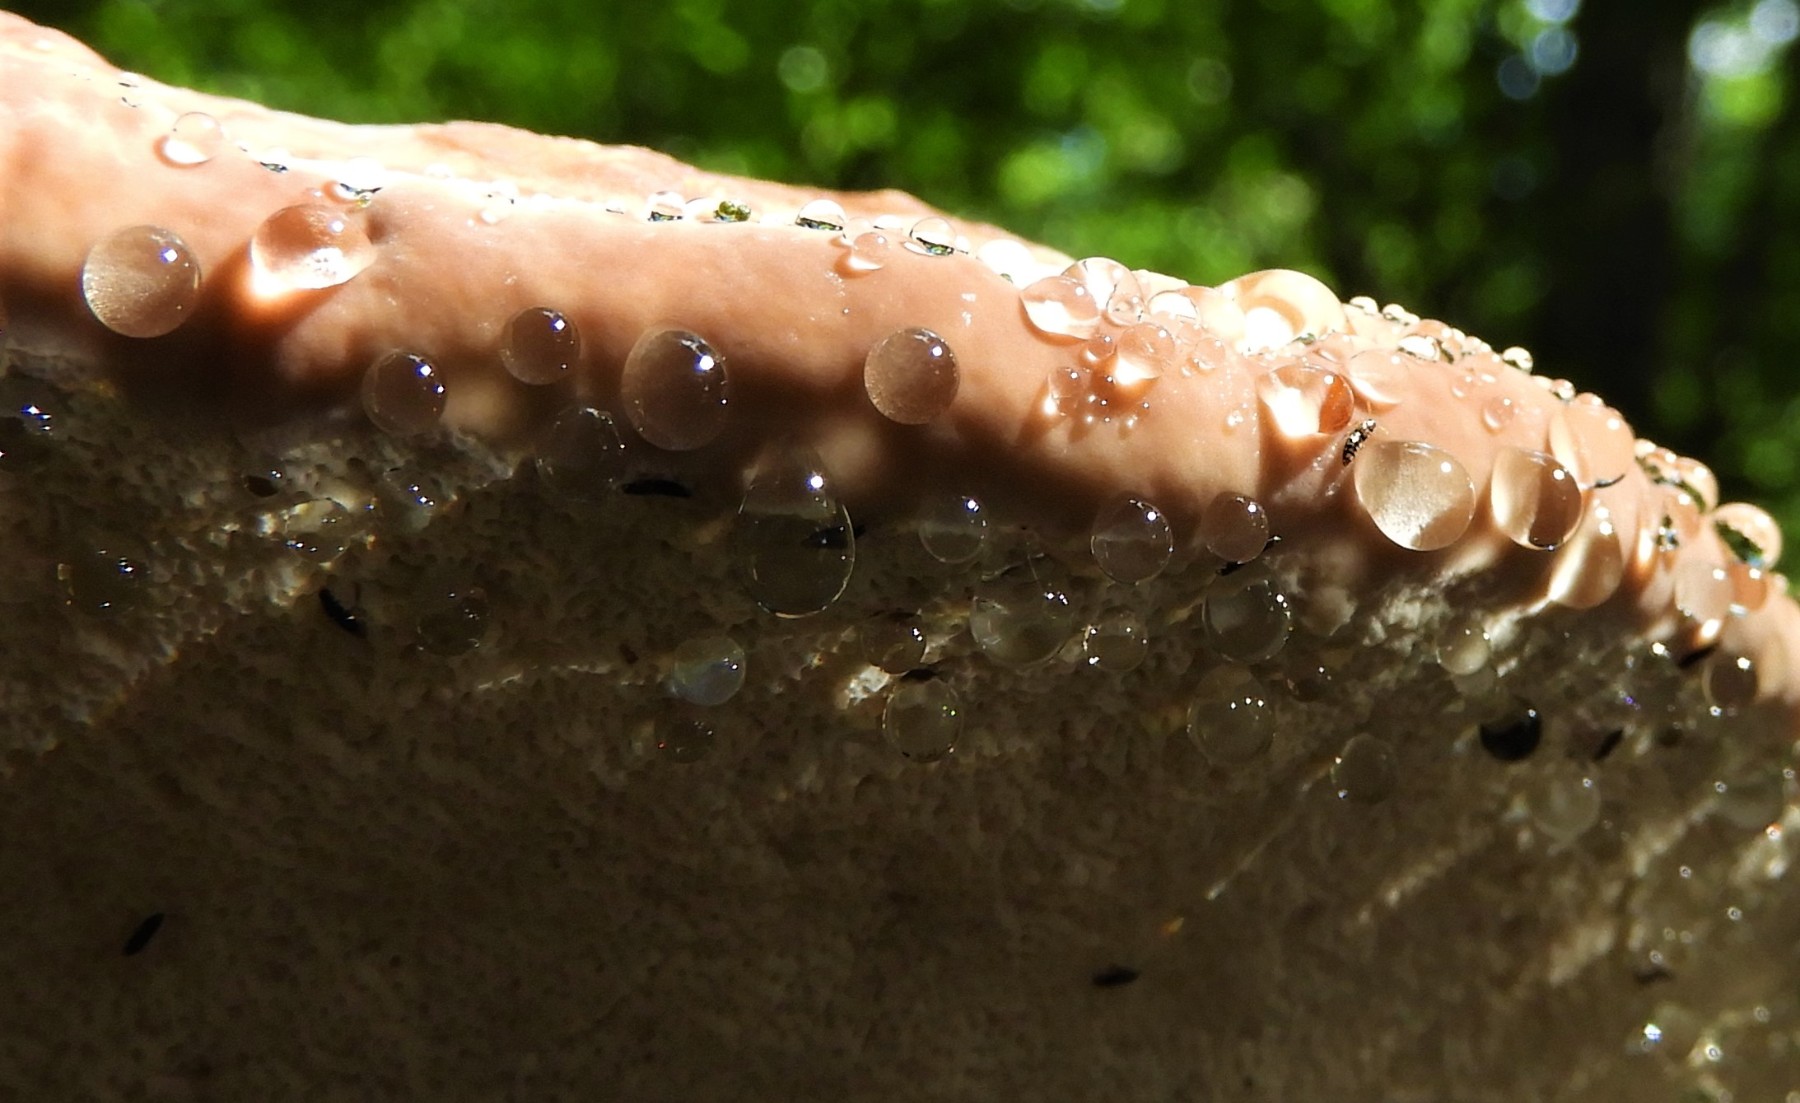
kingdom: Fungi
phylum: Basidiomycota
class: Agaricomycetes
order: Polyporales
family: Fomitopsidaceae
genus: Fomitopsis
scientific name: Fomitopsis pinicola
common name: randbæltet hovporesvamp
